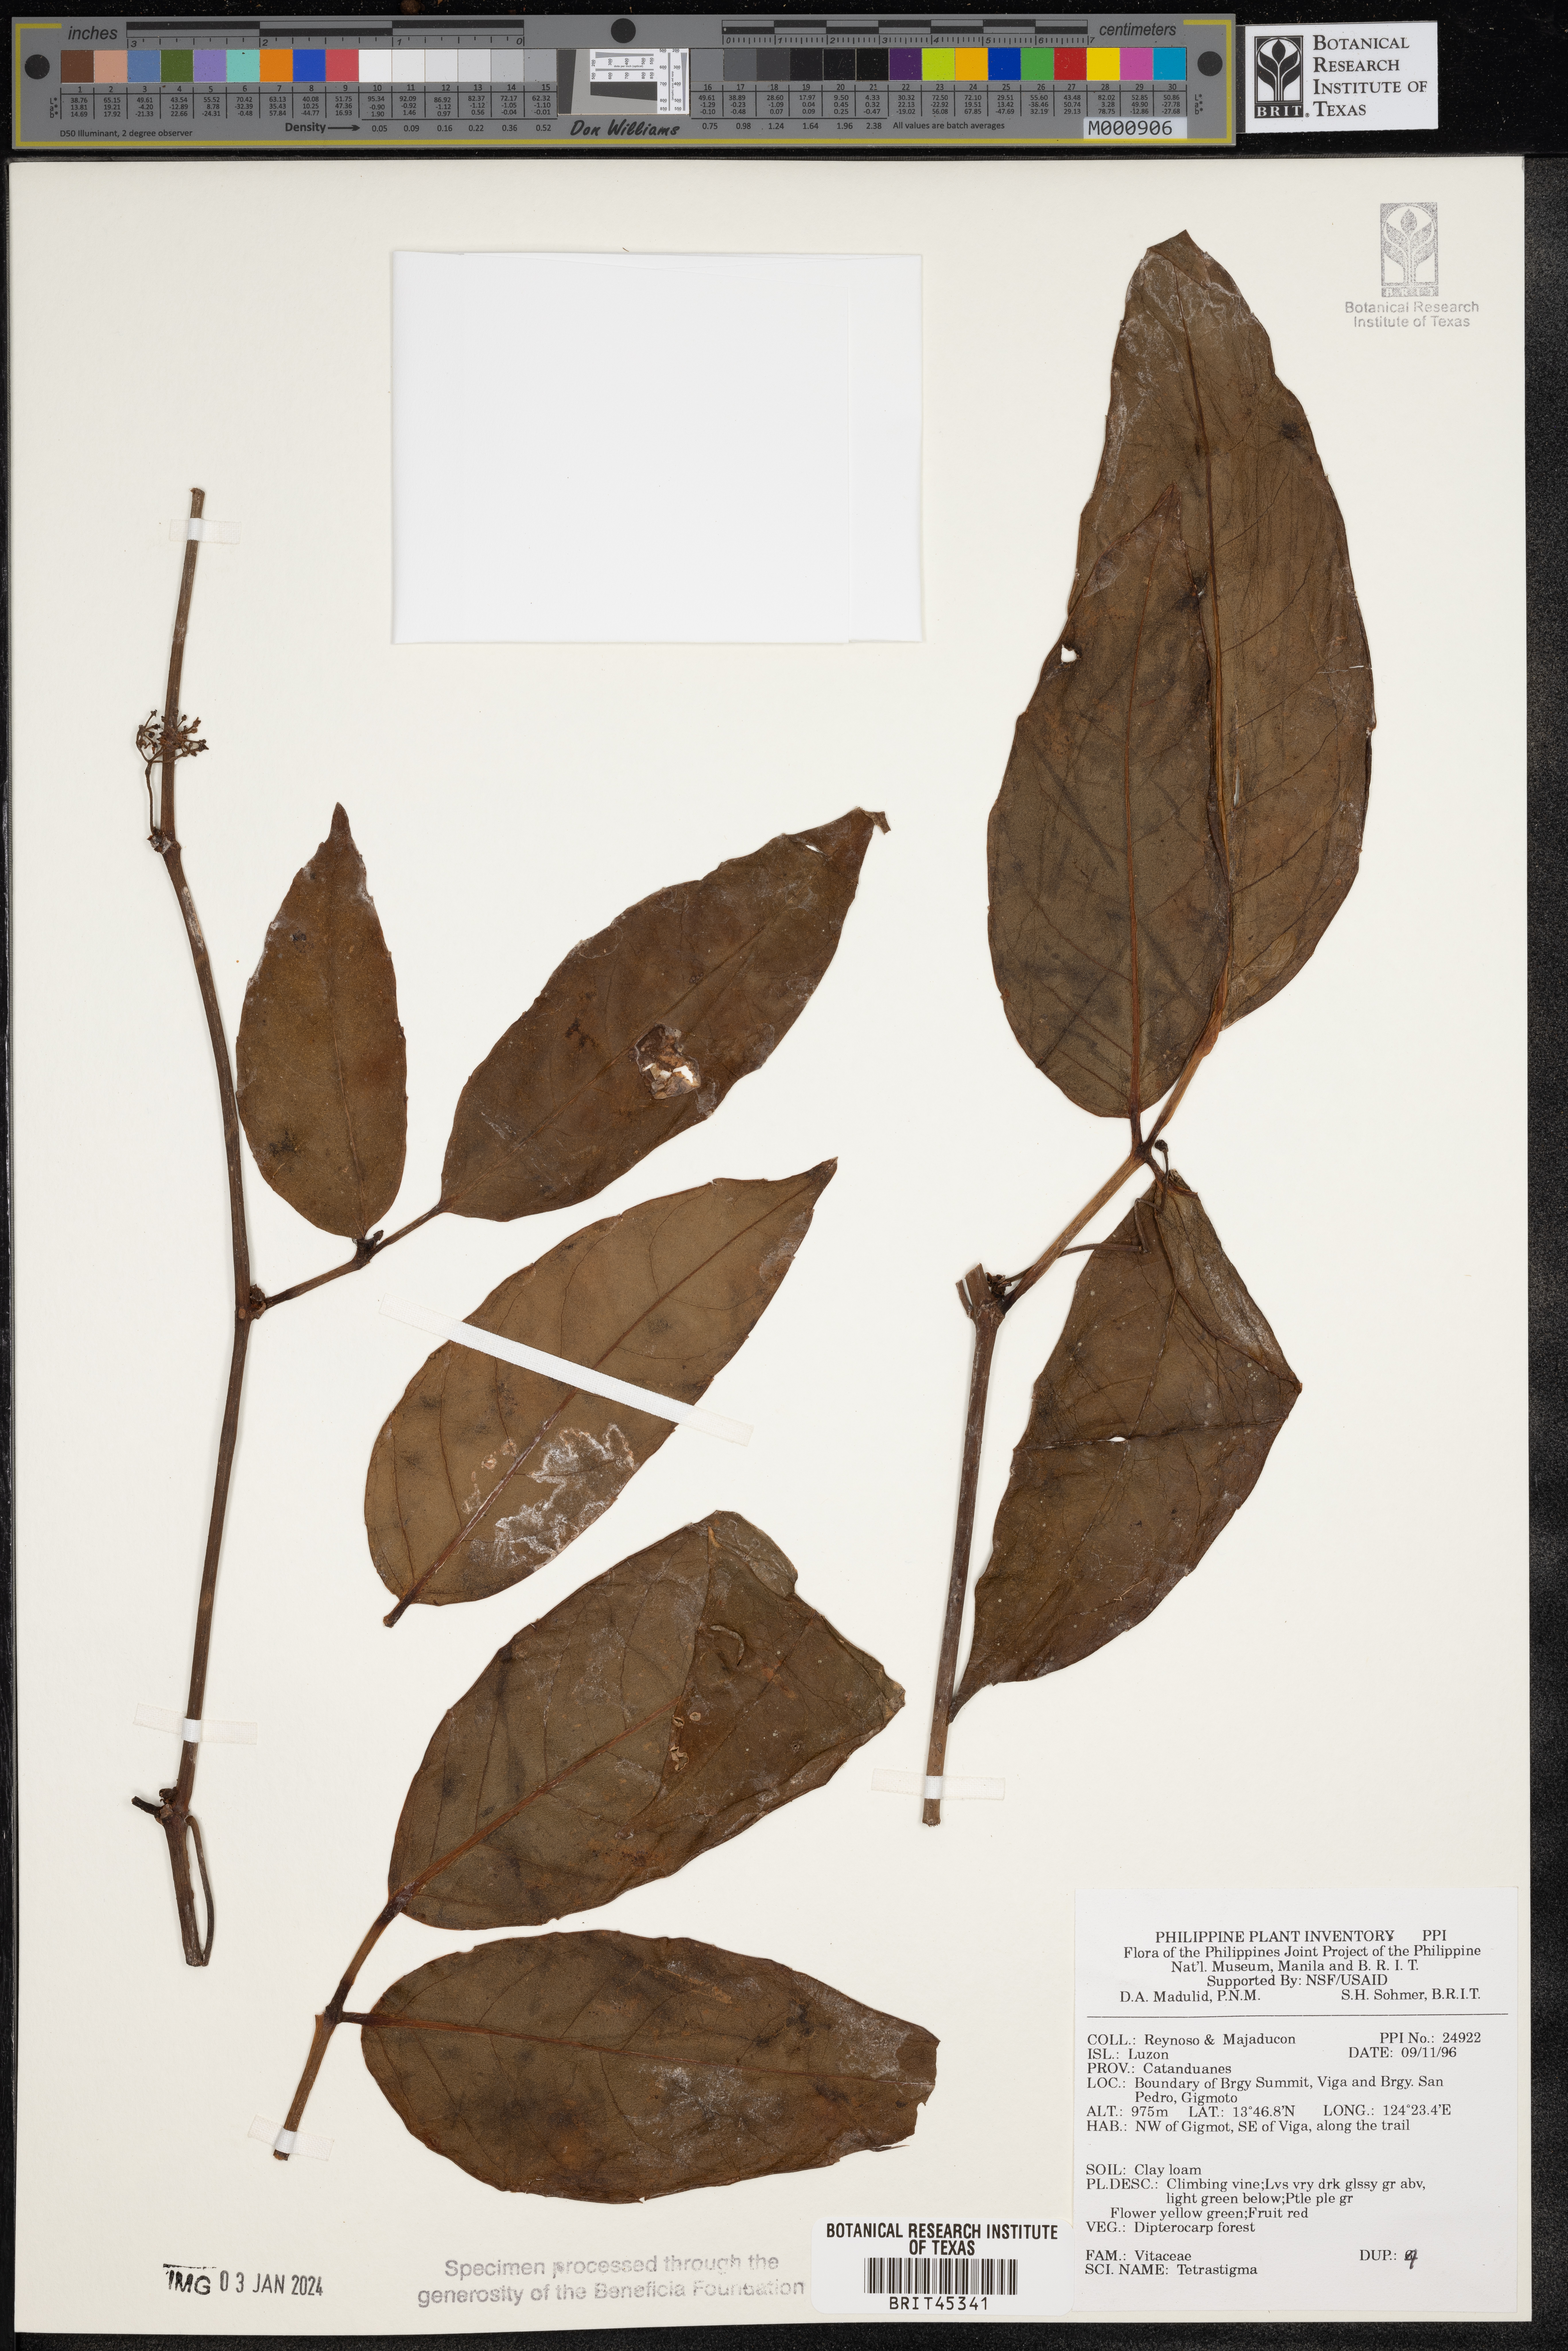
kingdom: Plantae
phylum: Tracheophyta
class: Magnoliopsida
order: Vitales
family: Vitaceae
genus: Tetrastigma
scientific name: Tetrastigma
